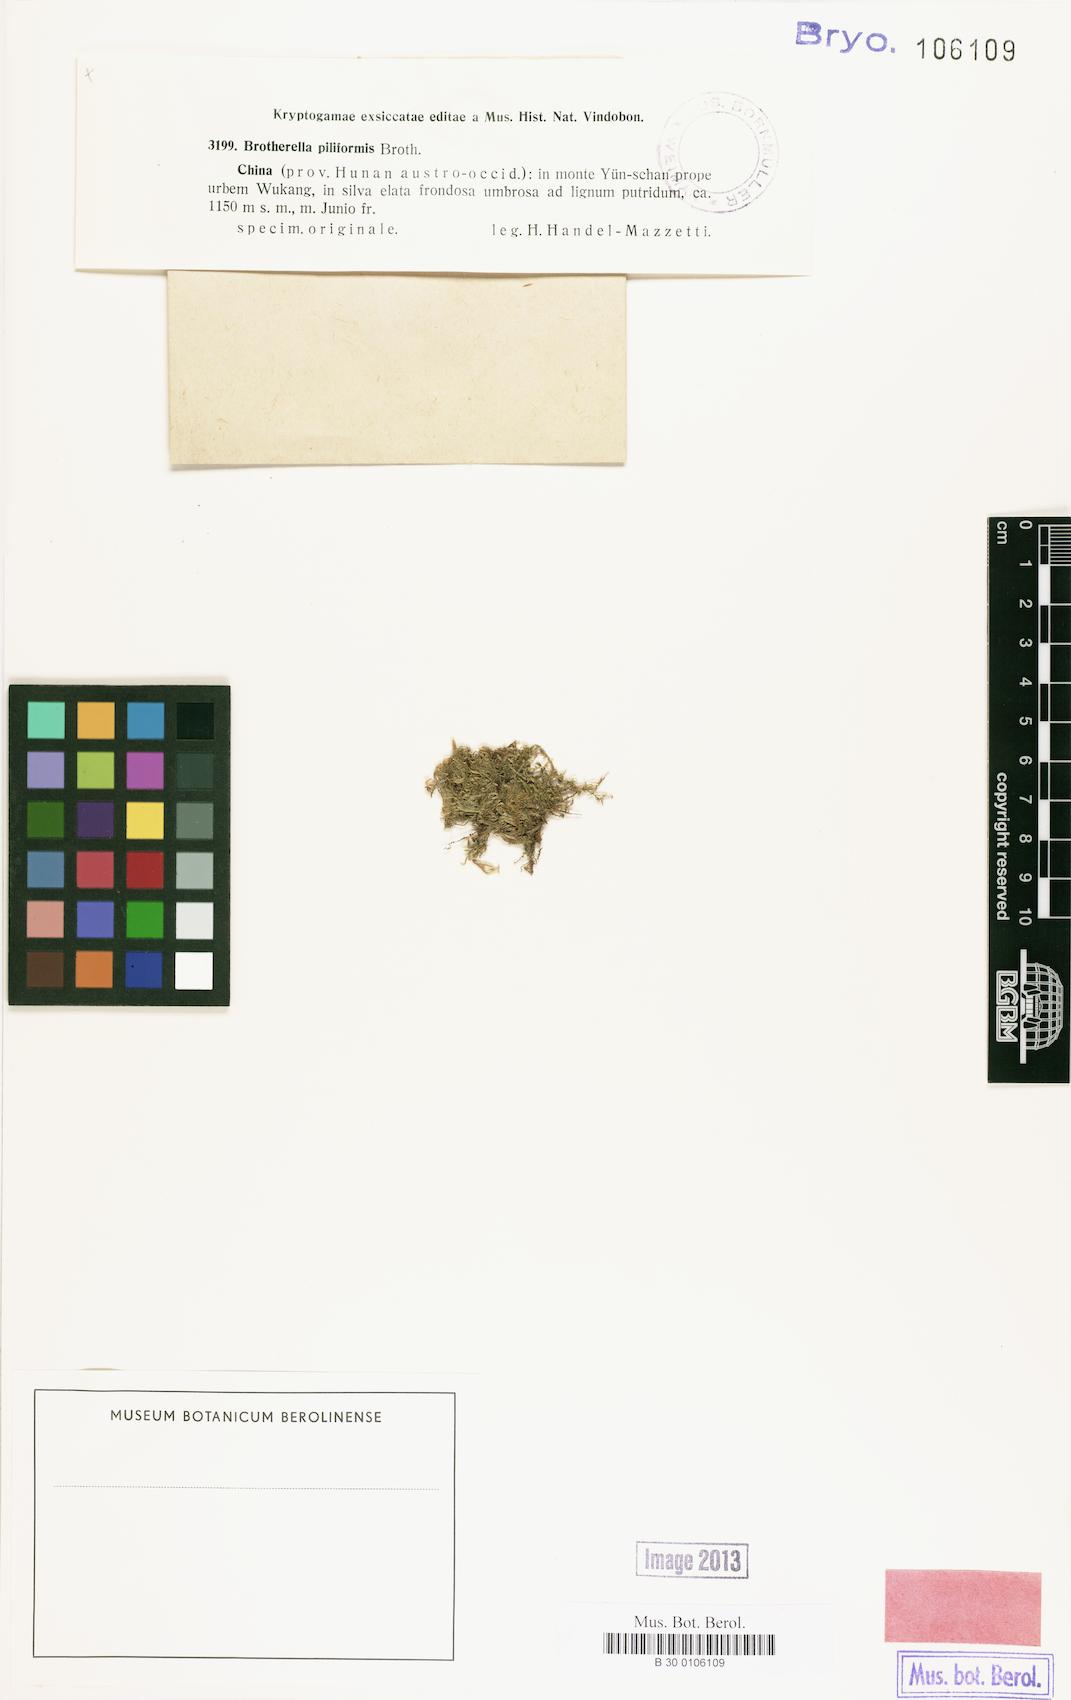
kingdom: Plantae
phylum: Bryophyta
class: Bryopsida
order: Hypnales
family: Pylaisiadelphaceae
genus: Wijkia
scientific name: Wijkia hornschuchii
